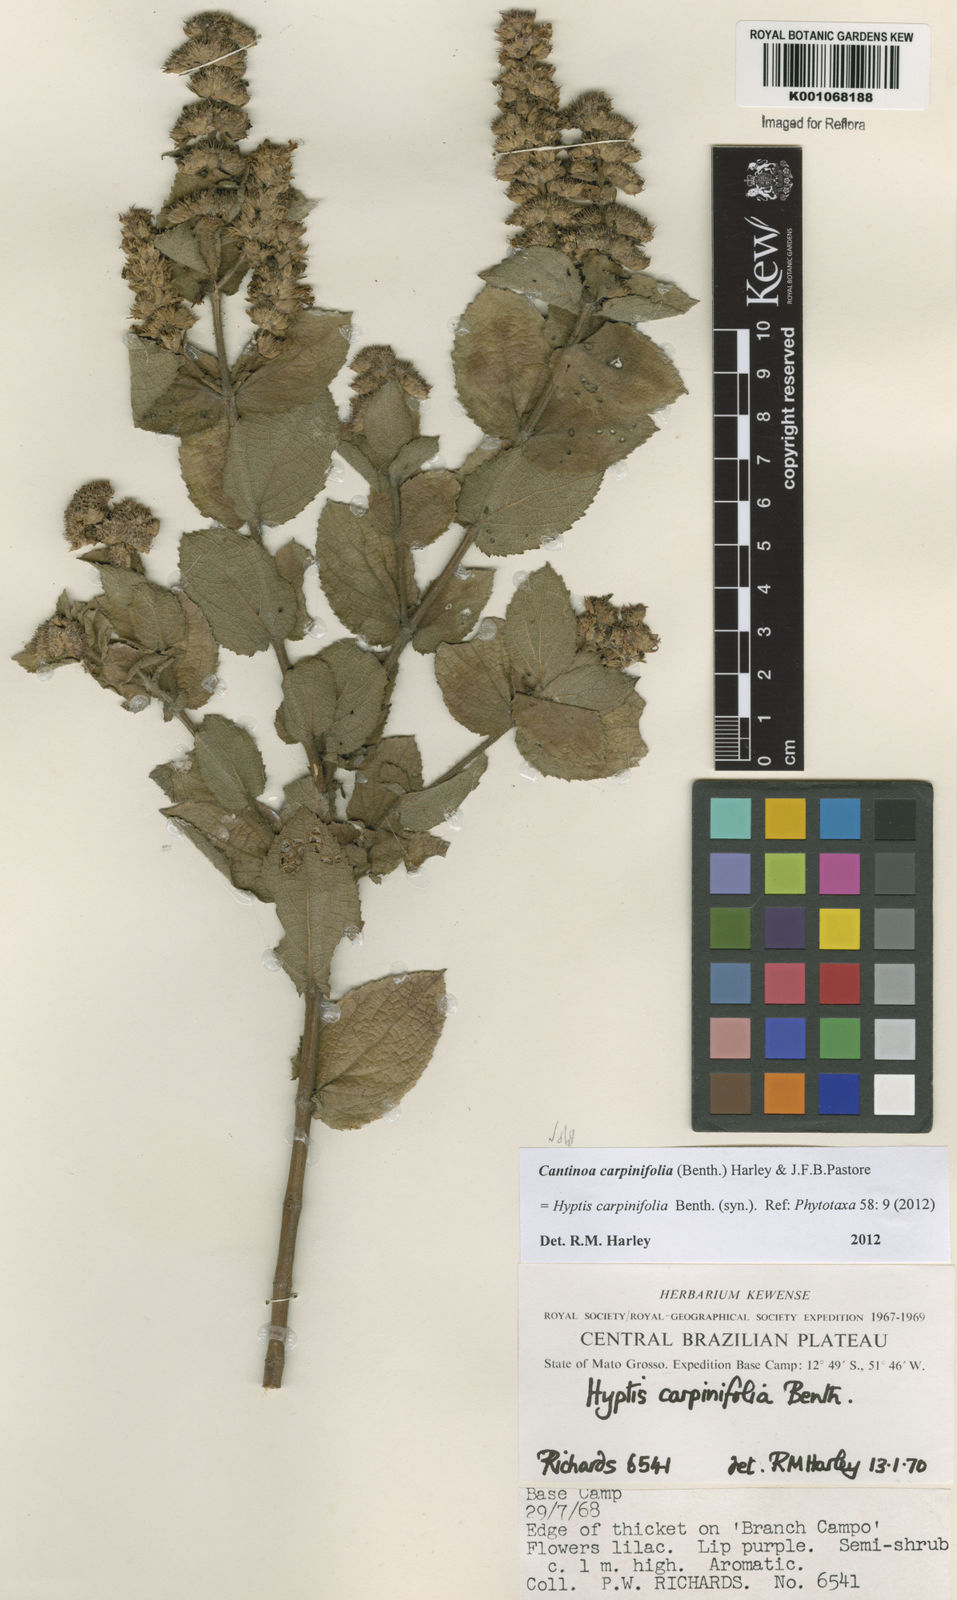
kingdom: Plantae
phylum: Tracheophyta
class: Magnoliopsida
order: Lamiales
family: Lamiaceae
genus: Cantinoa
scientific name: Cantinoa carpinifolia
